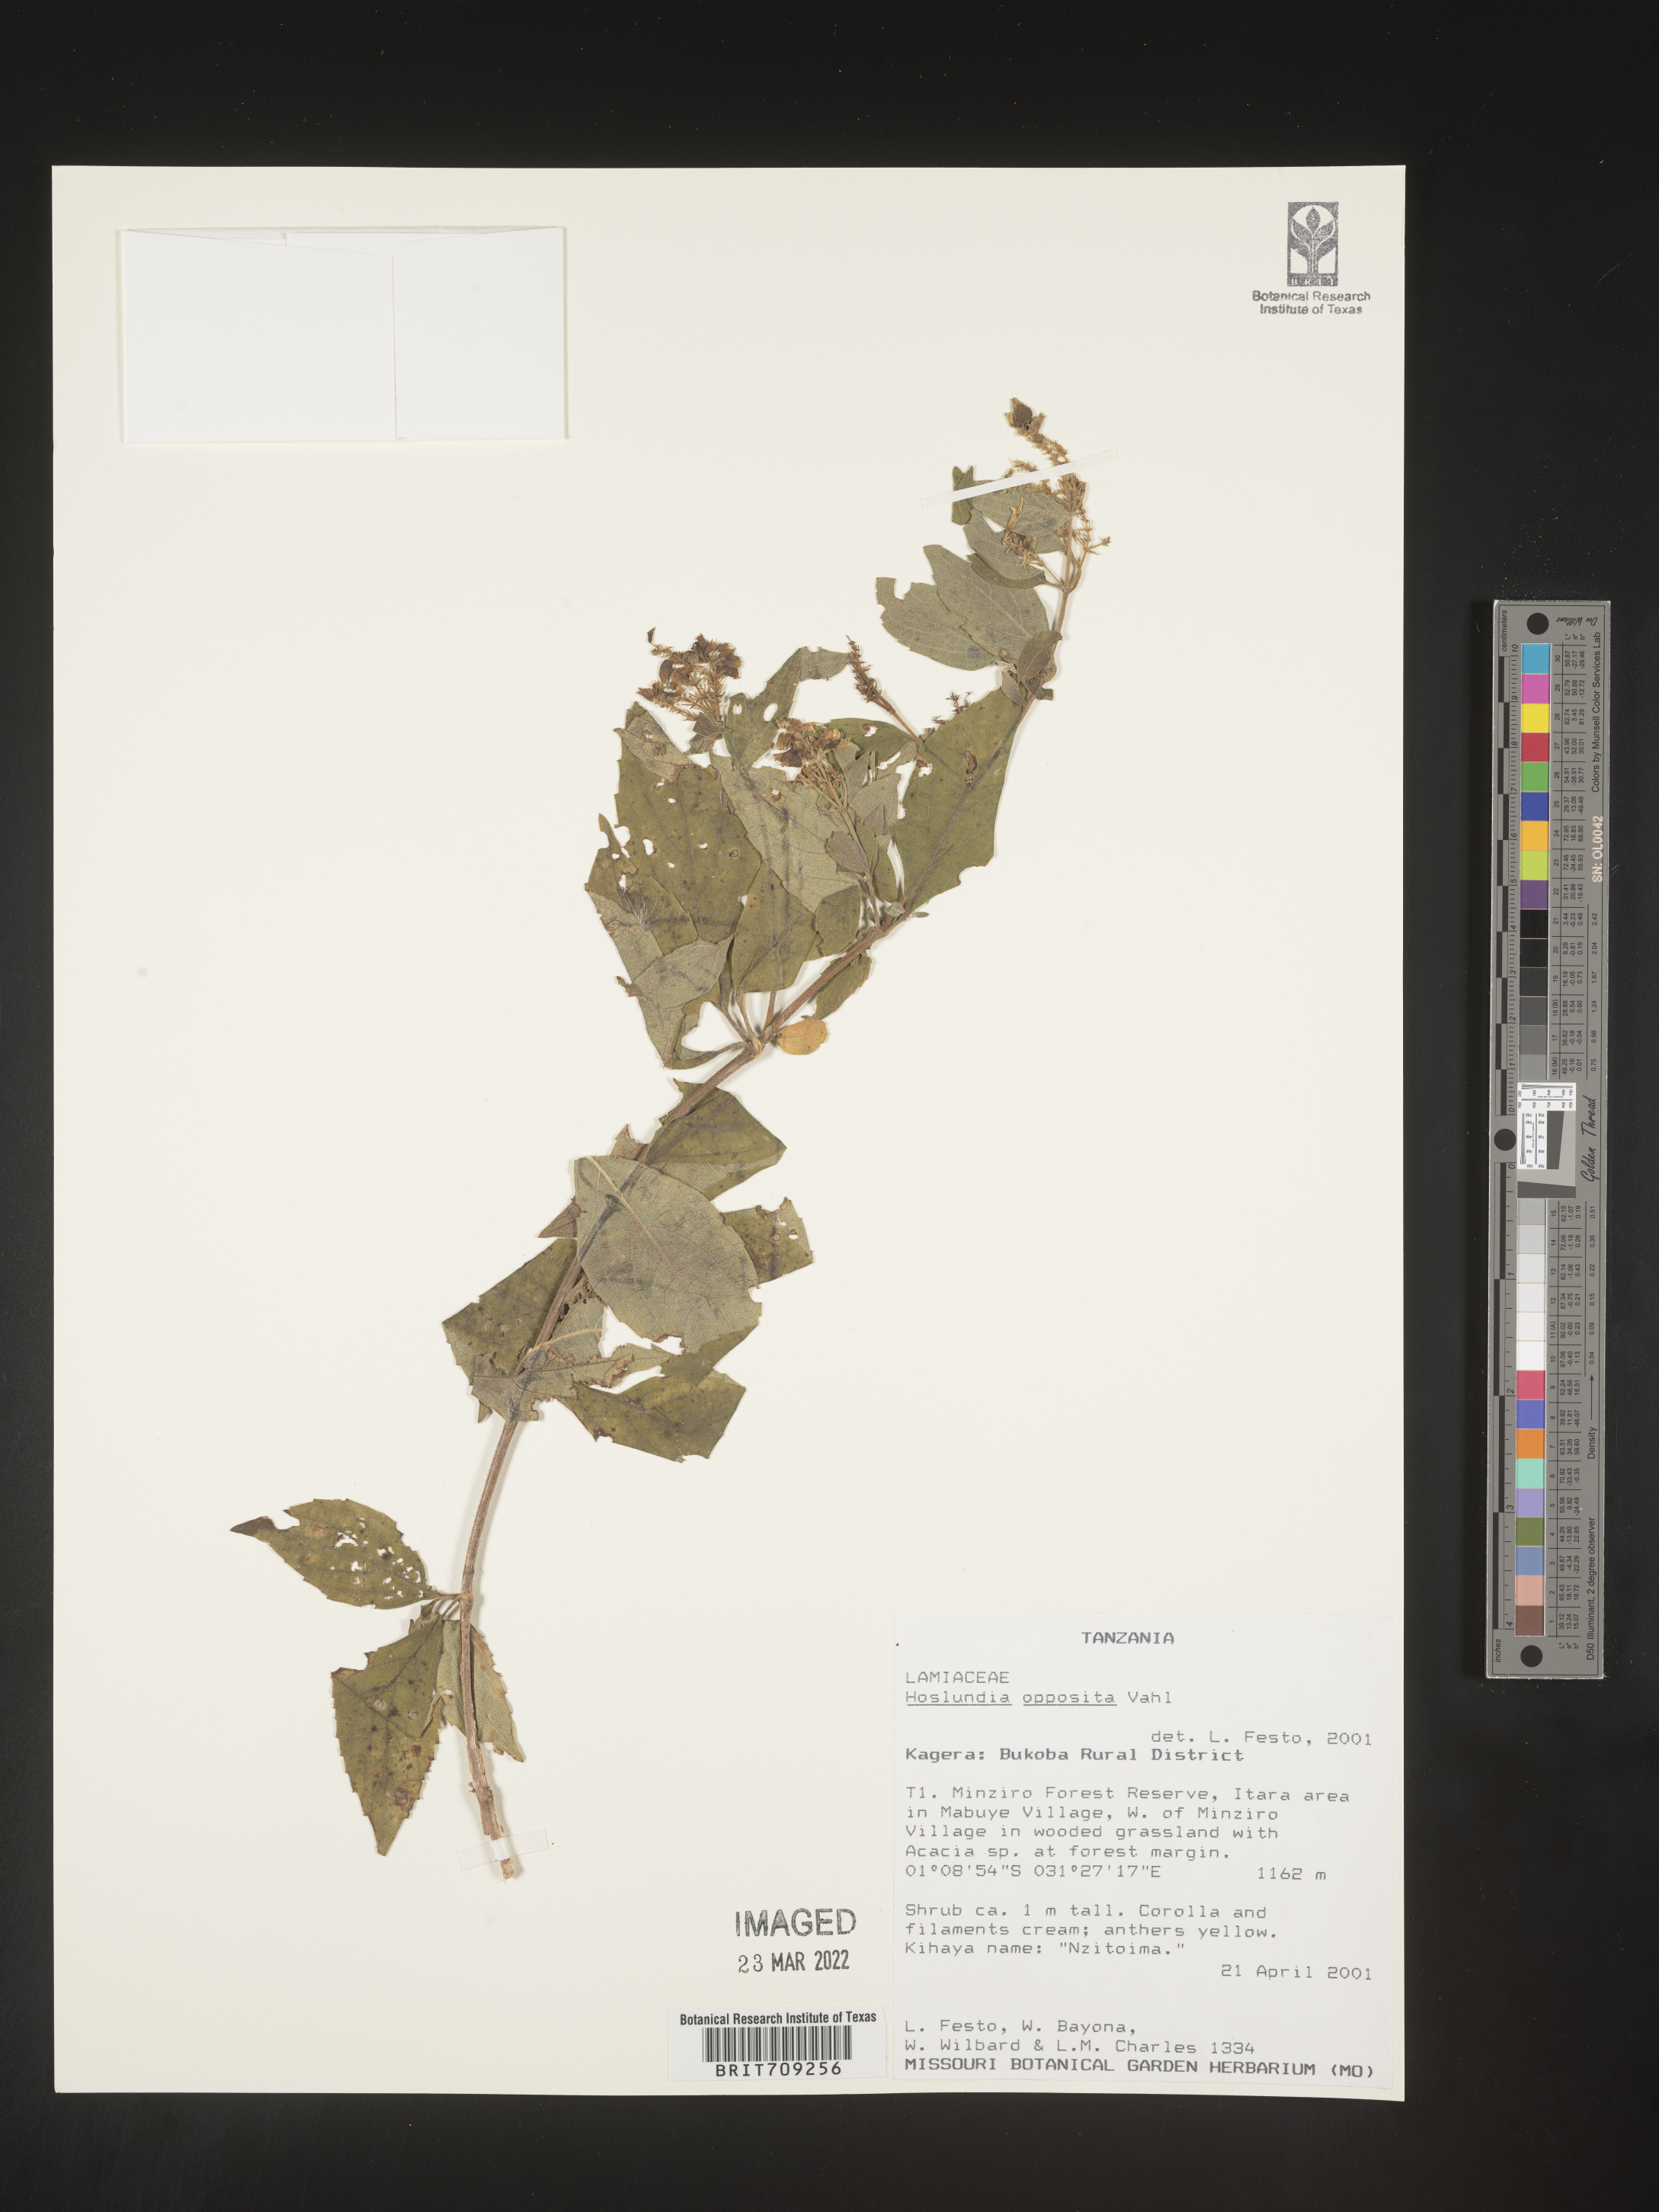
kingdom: Plantae
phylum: Tracheophyta
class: Magnoliopsida
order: Lamiales
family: Lamiaceae
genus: Hoslundia
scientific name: Hoslundia opposita
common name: Kamyuye
